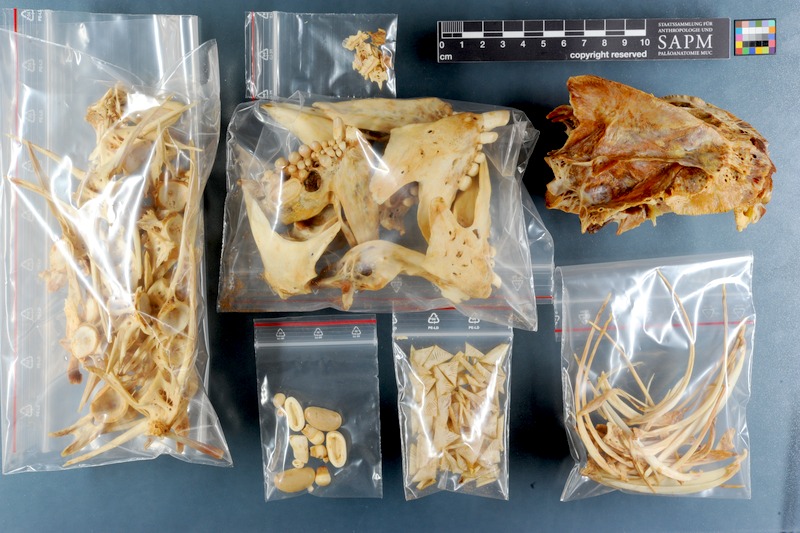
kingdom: Animalia
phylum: Chordata
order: Perciformes
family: Sparidae
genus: Sparodon
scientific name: Sparodon durbanensis
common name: White musselcracker
